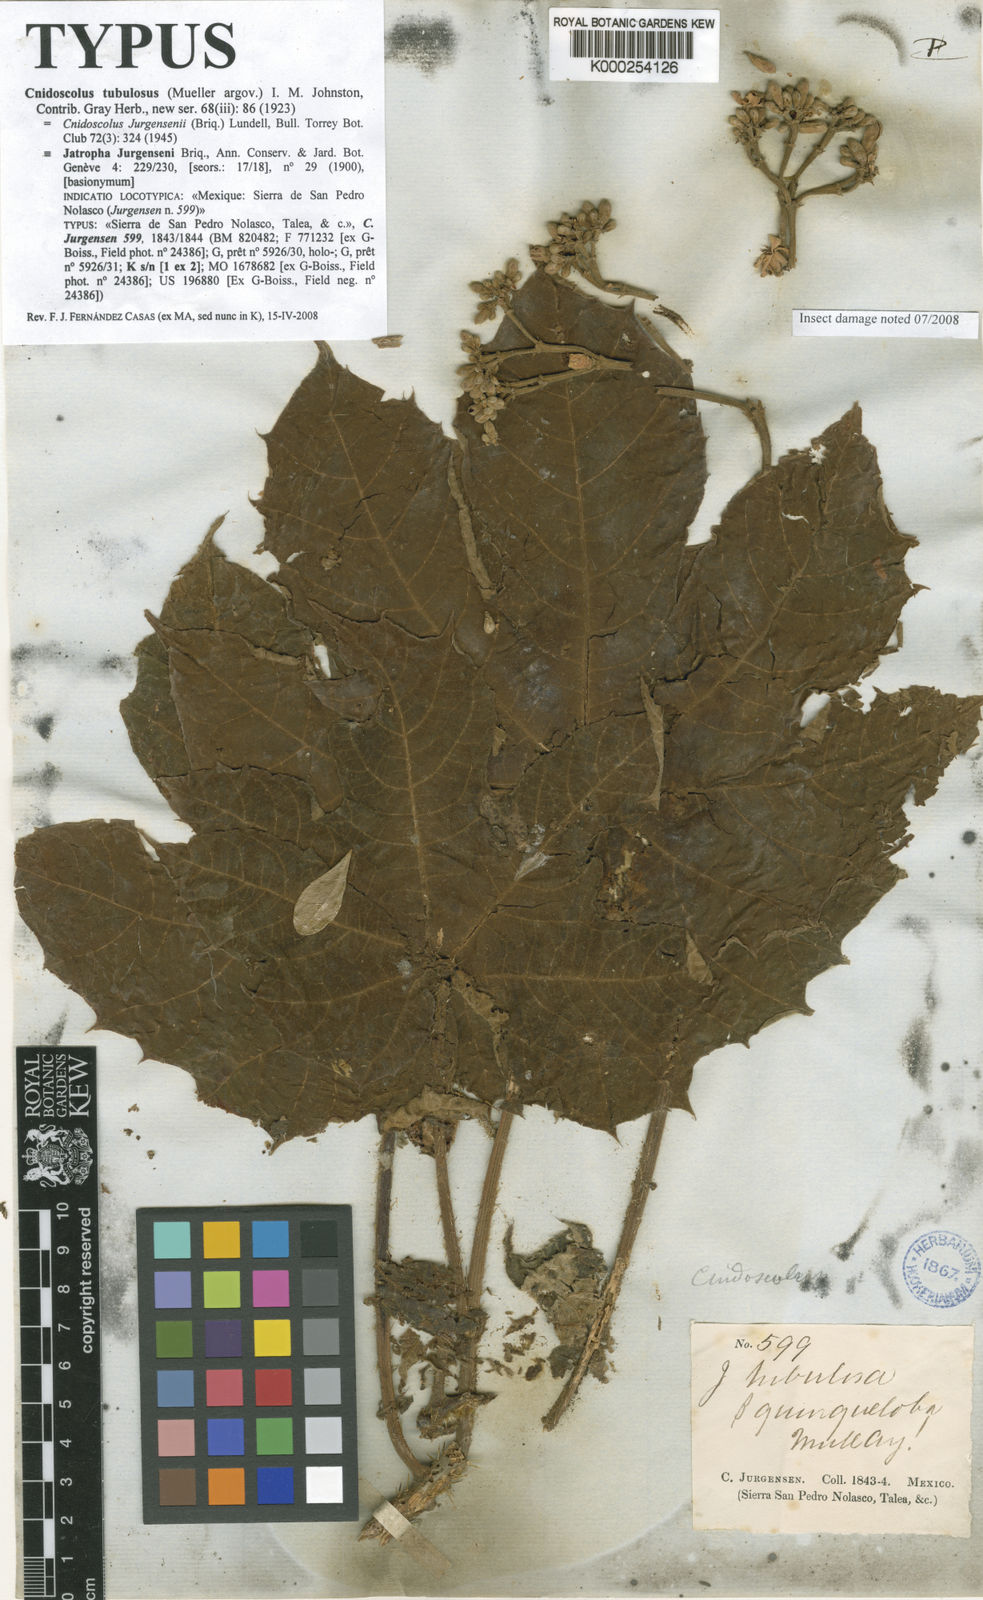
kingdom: Plantae
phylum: Tracheophyta
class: Magnoliopsida
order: Malpighiales
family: Euphorbiaceae
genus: Cnidoscolus
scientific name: Cnidoscolus tubulosus
